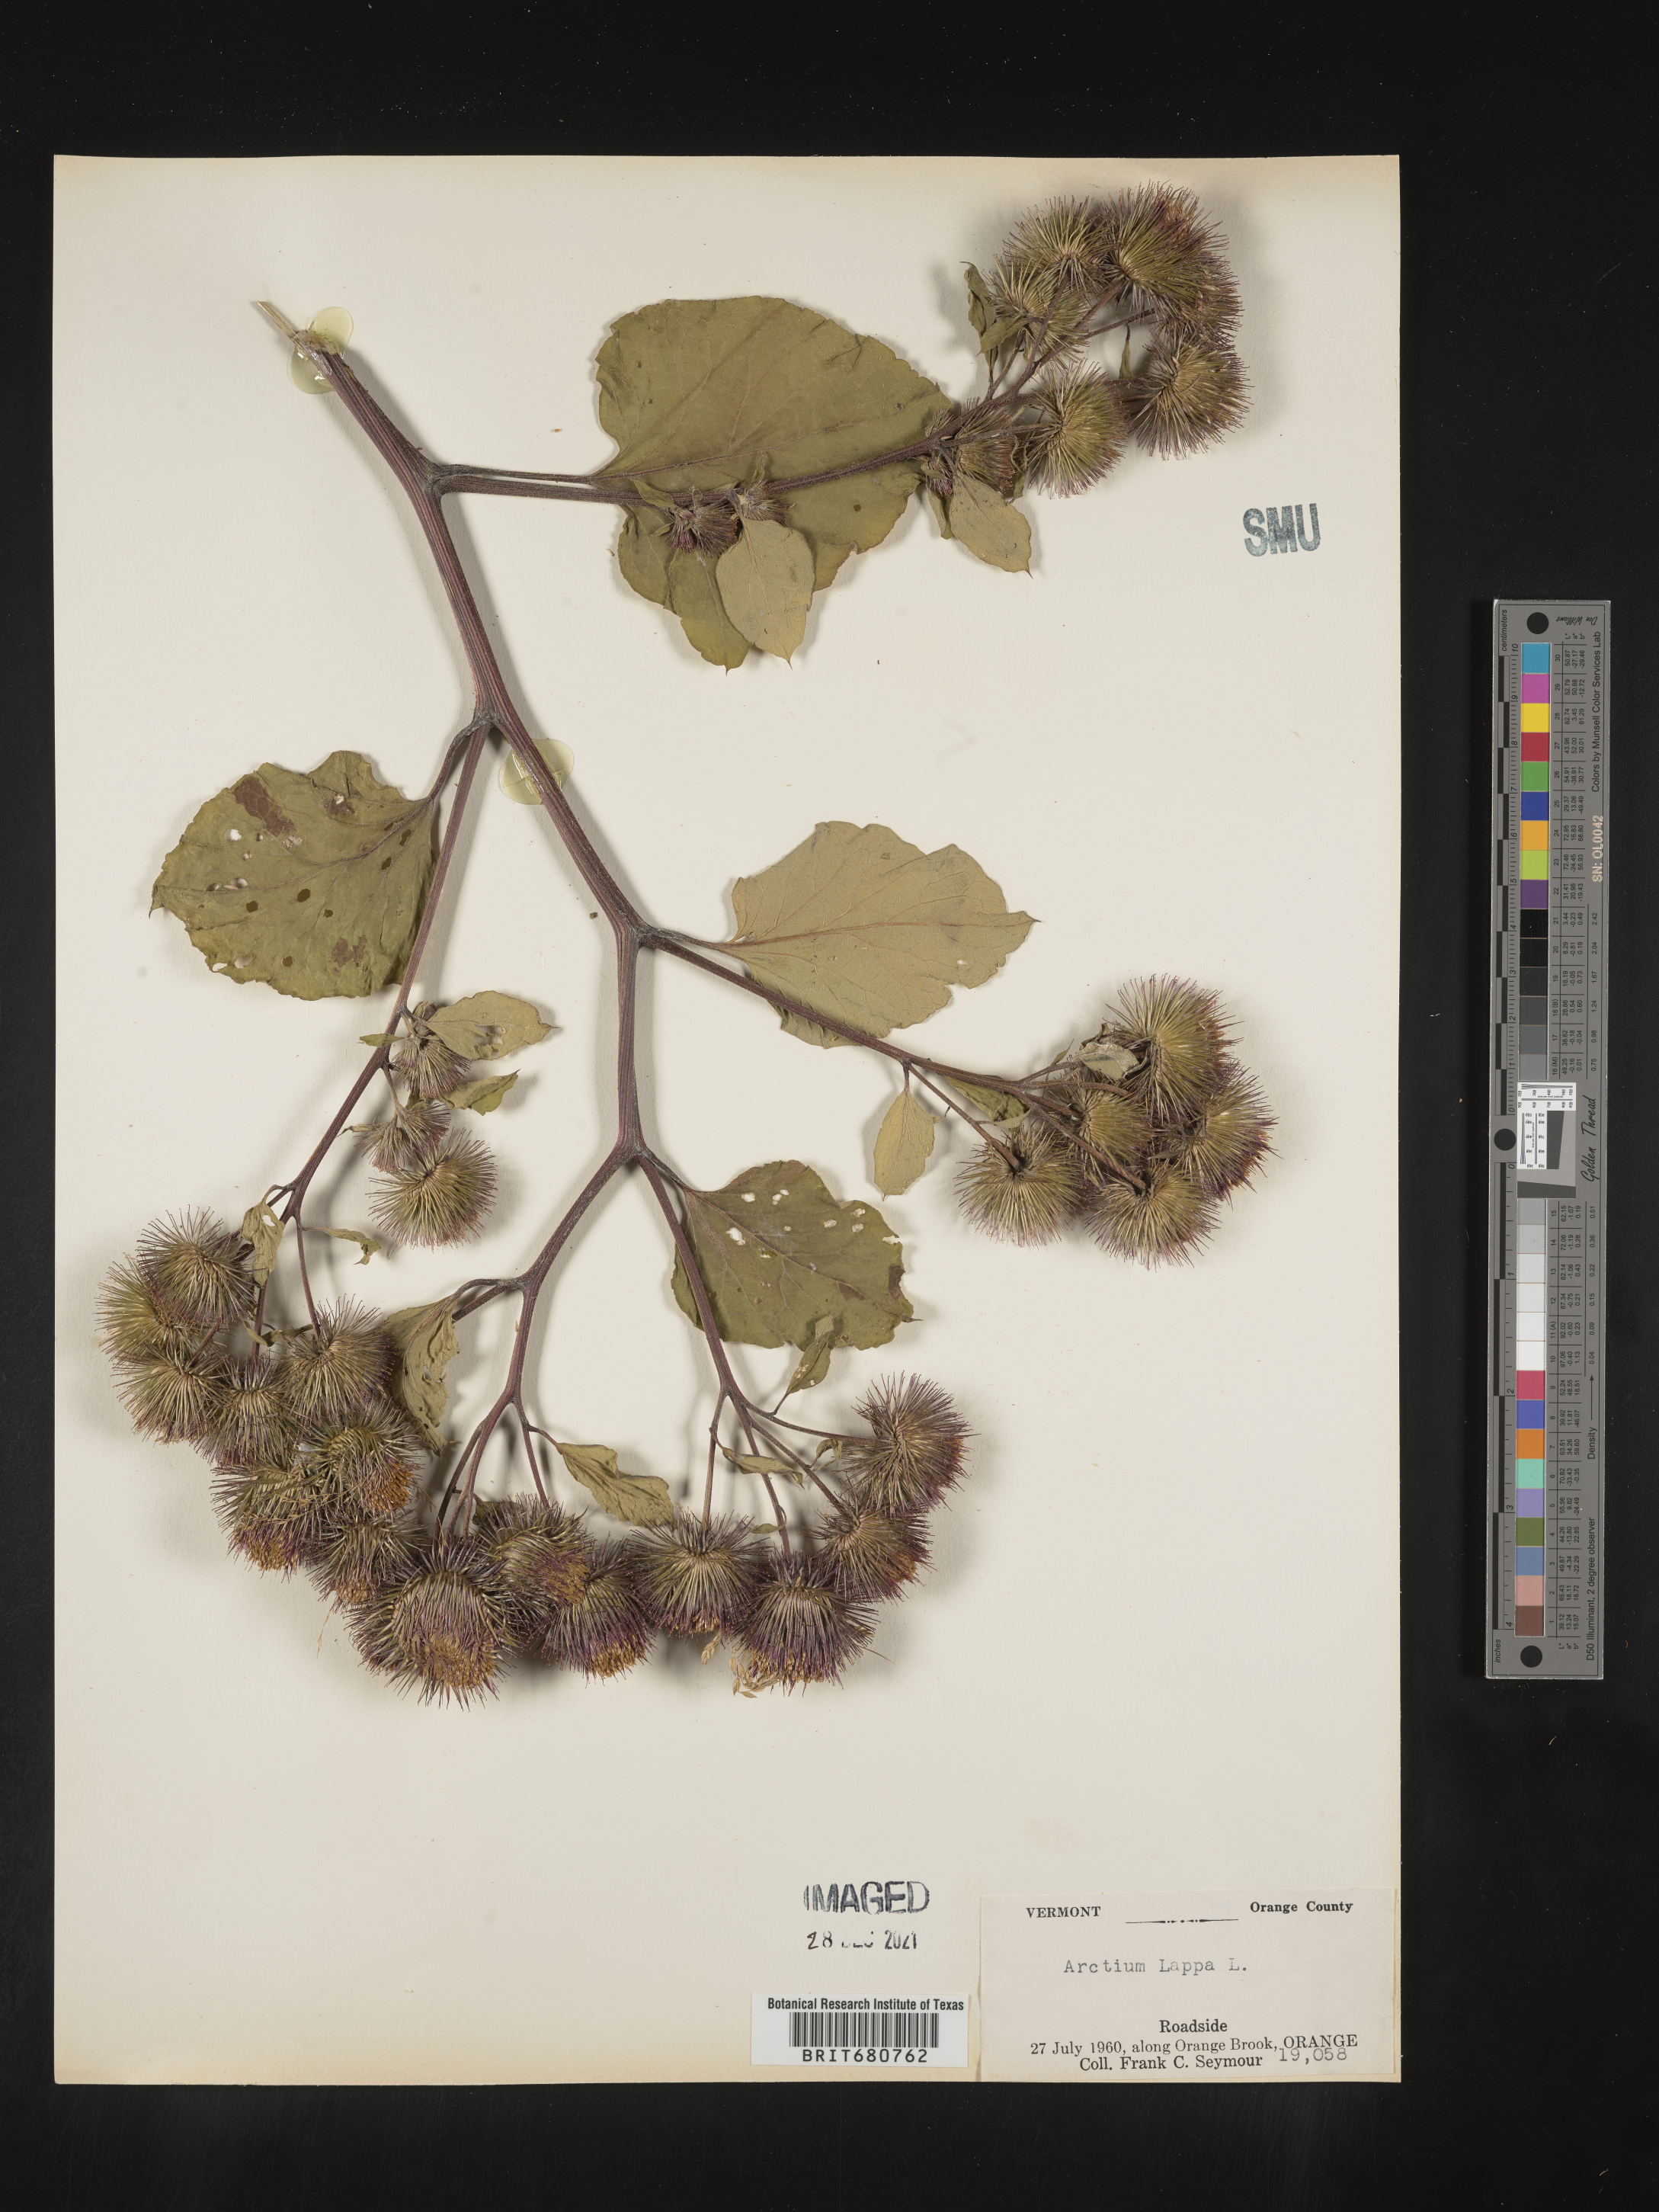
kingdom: Plantae
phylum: Tracheophyta
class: Magnoliopsida
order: Asterales
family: Asteraceae
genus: Arctium
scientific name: Arctium lappa
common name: Greater burdock
